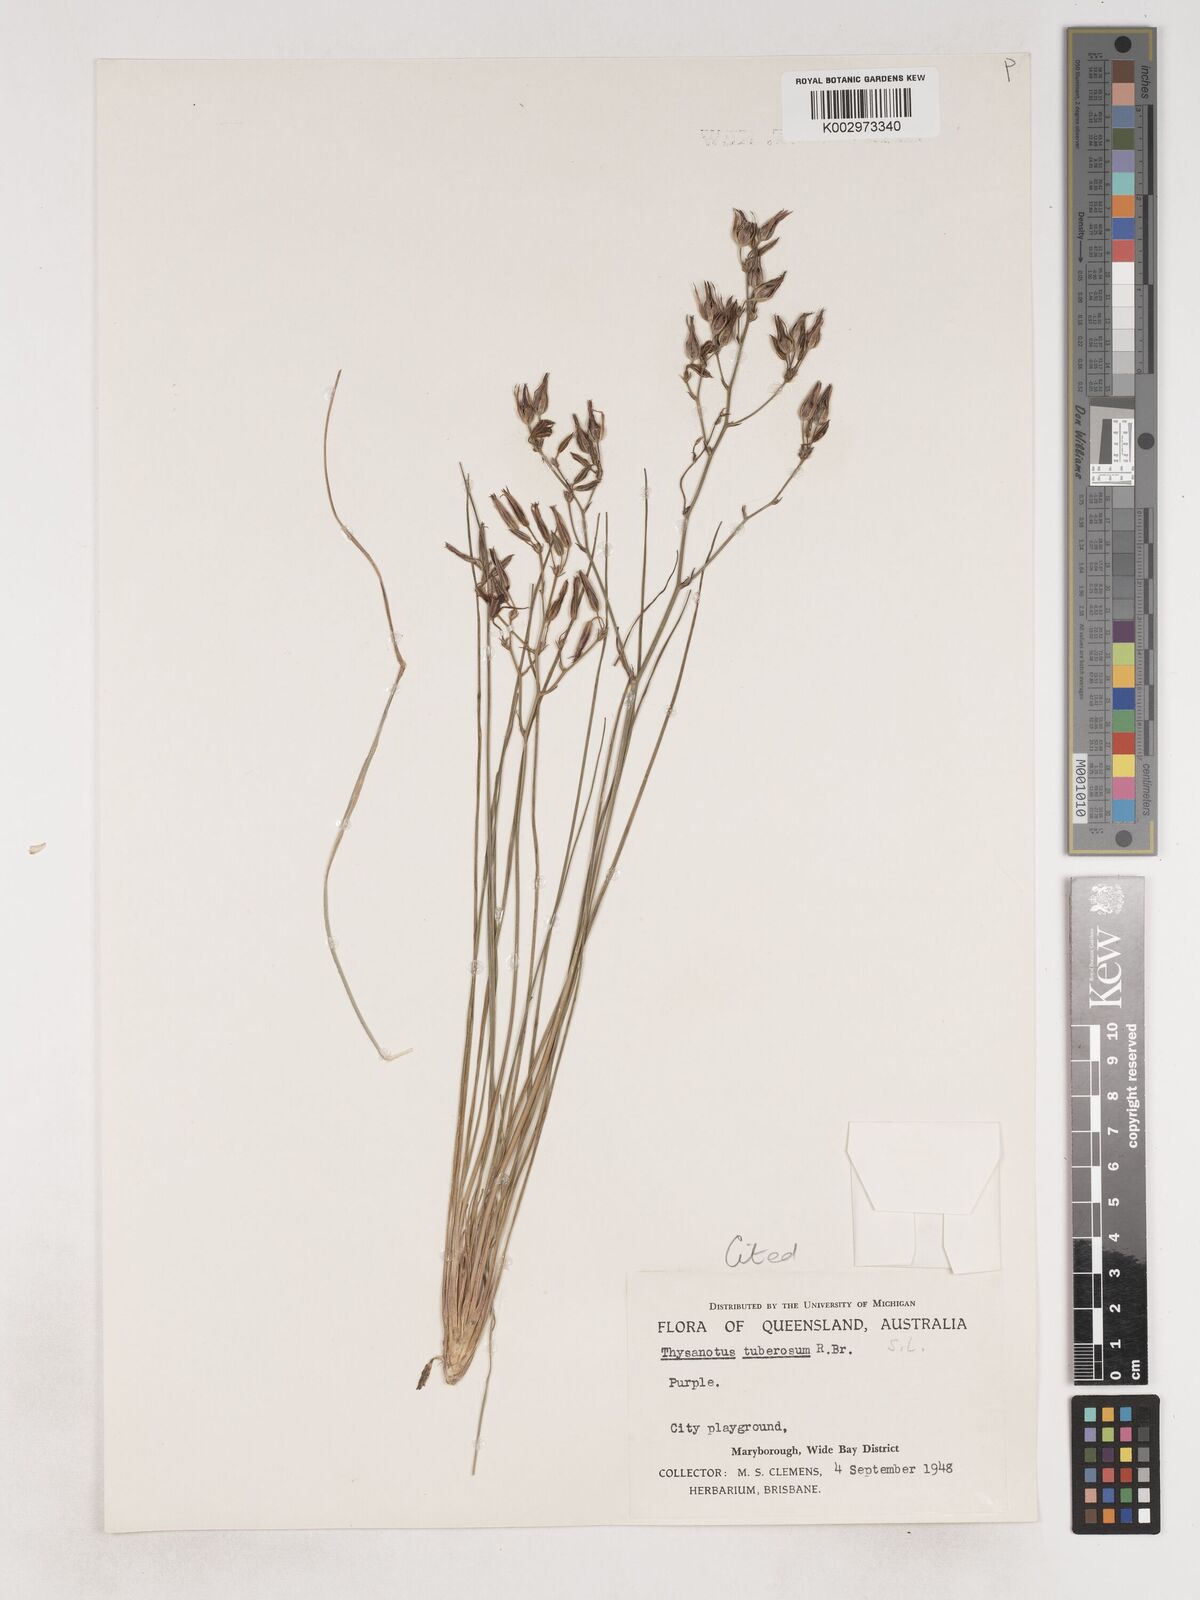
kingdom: Plantae
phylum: Tracheophyta
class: Liliopsida
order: Asparagales
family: Asparagaceae
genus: Thysanotus
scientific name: Thysanotus tuberosus
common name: Common fringed-lily
